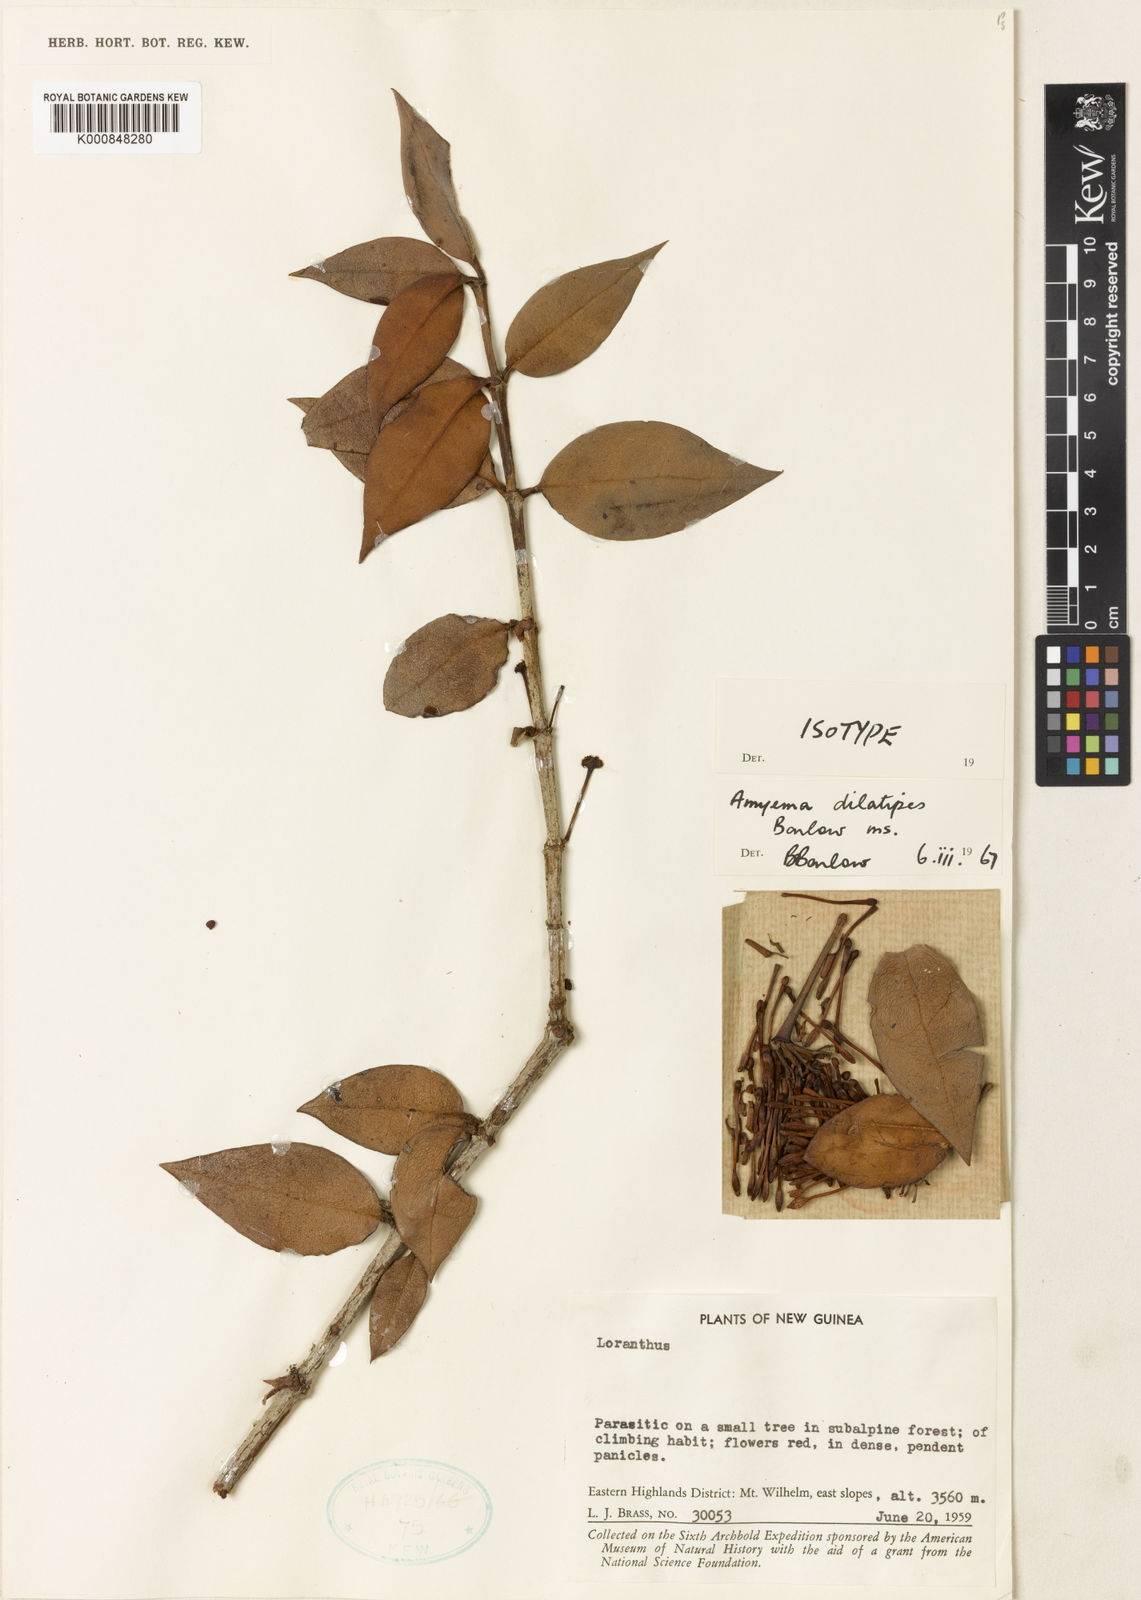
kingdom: Plantae
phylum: Tracheophyta
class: Magnoliopsida
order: Santalales
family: Loranthaceae
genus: Amyema
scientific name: Amyema dilatipes
